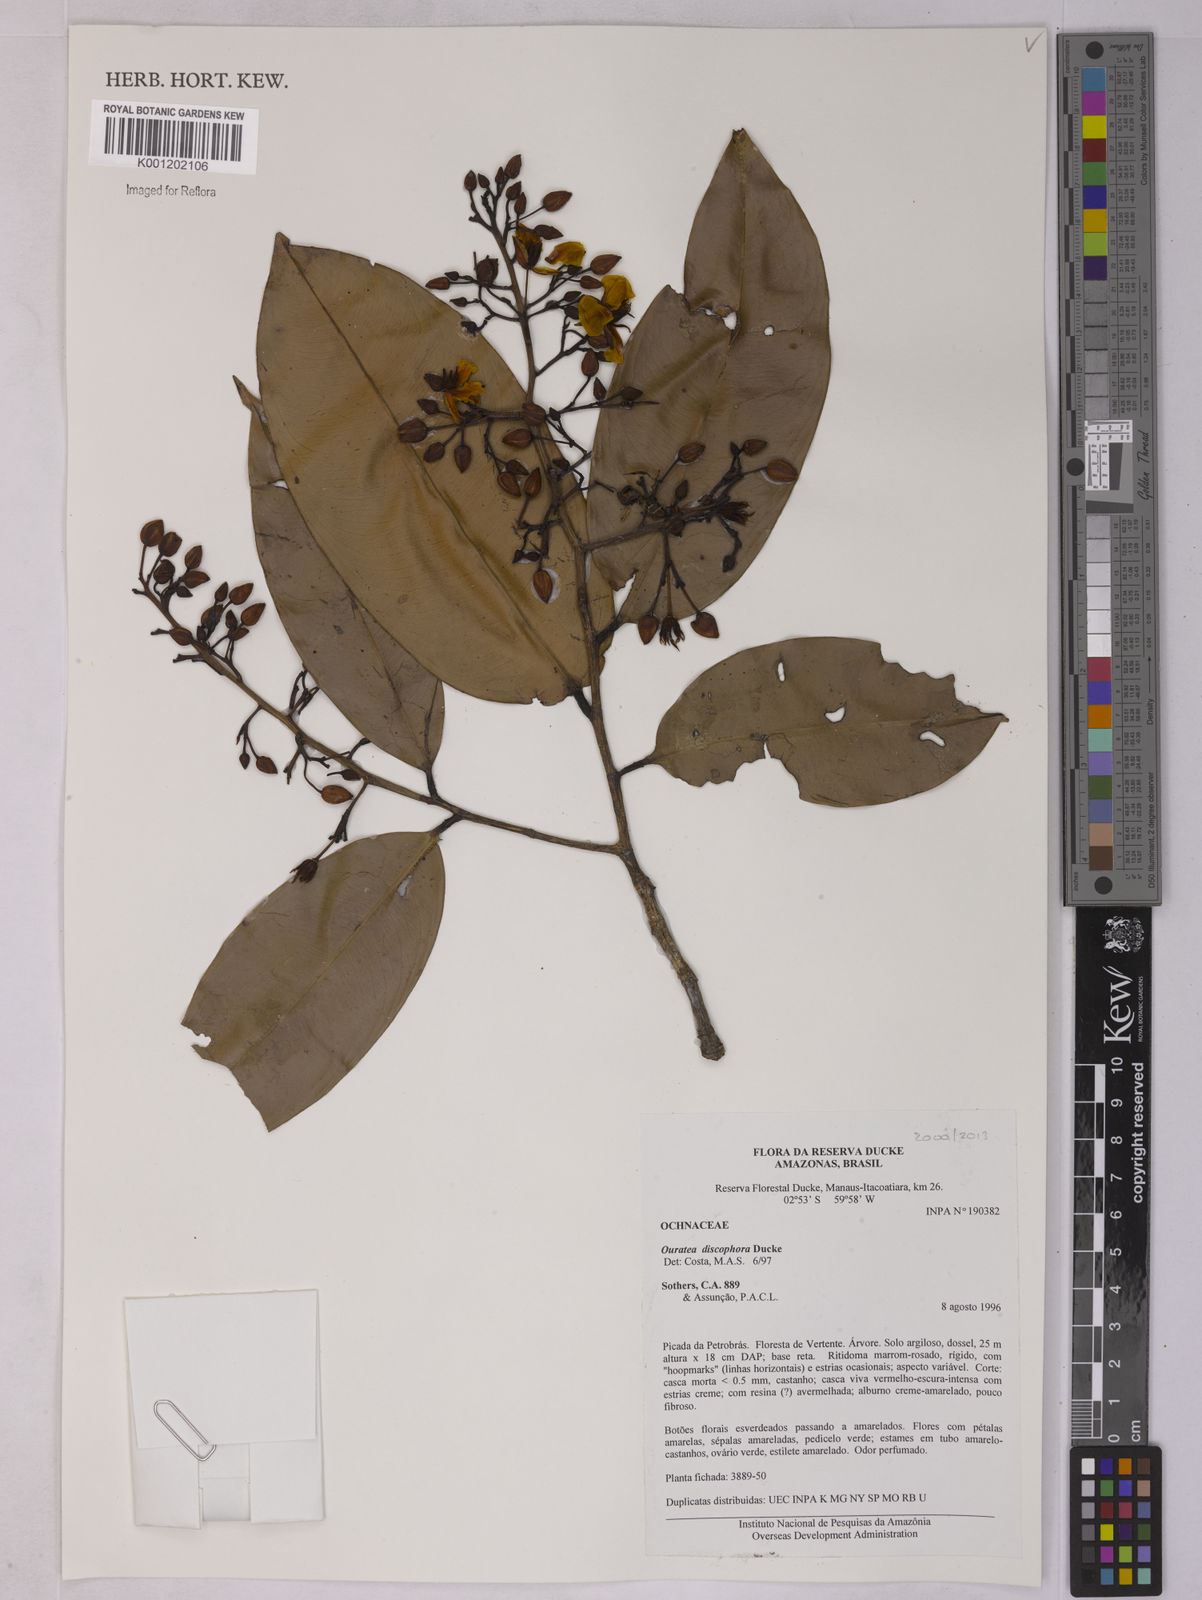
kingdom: Plantae
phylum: Tracheophyta
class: Magnoliopsida
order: Malpighiales
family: Ochnaceae
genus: Ouratea
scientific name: Ouratea discophora
